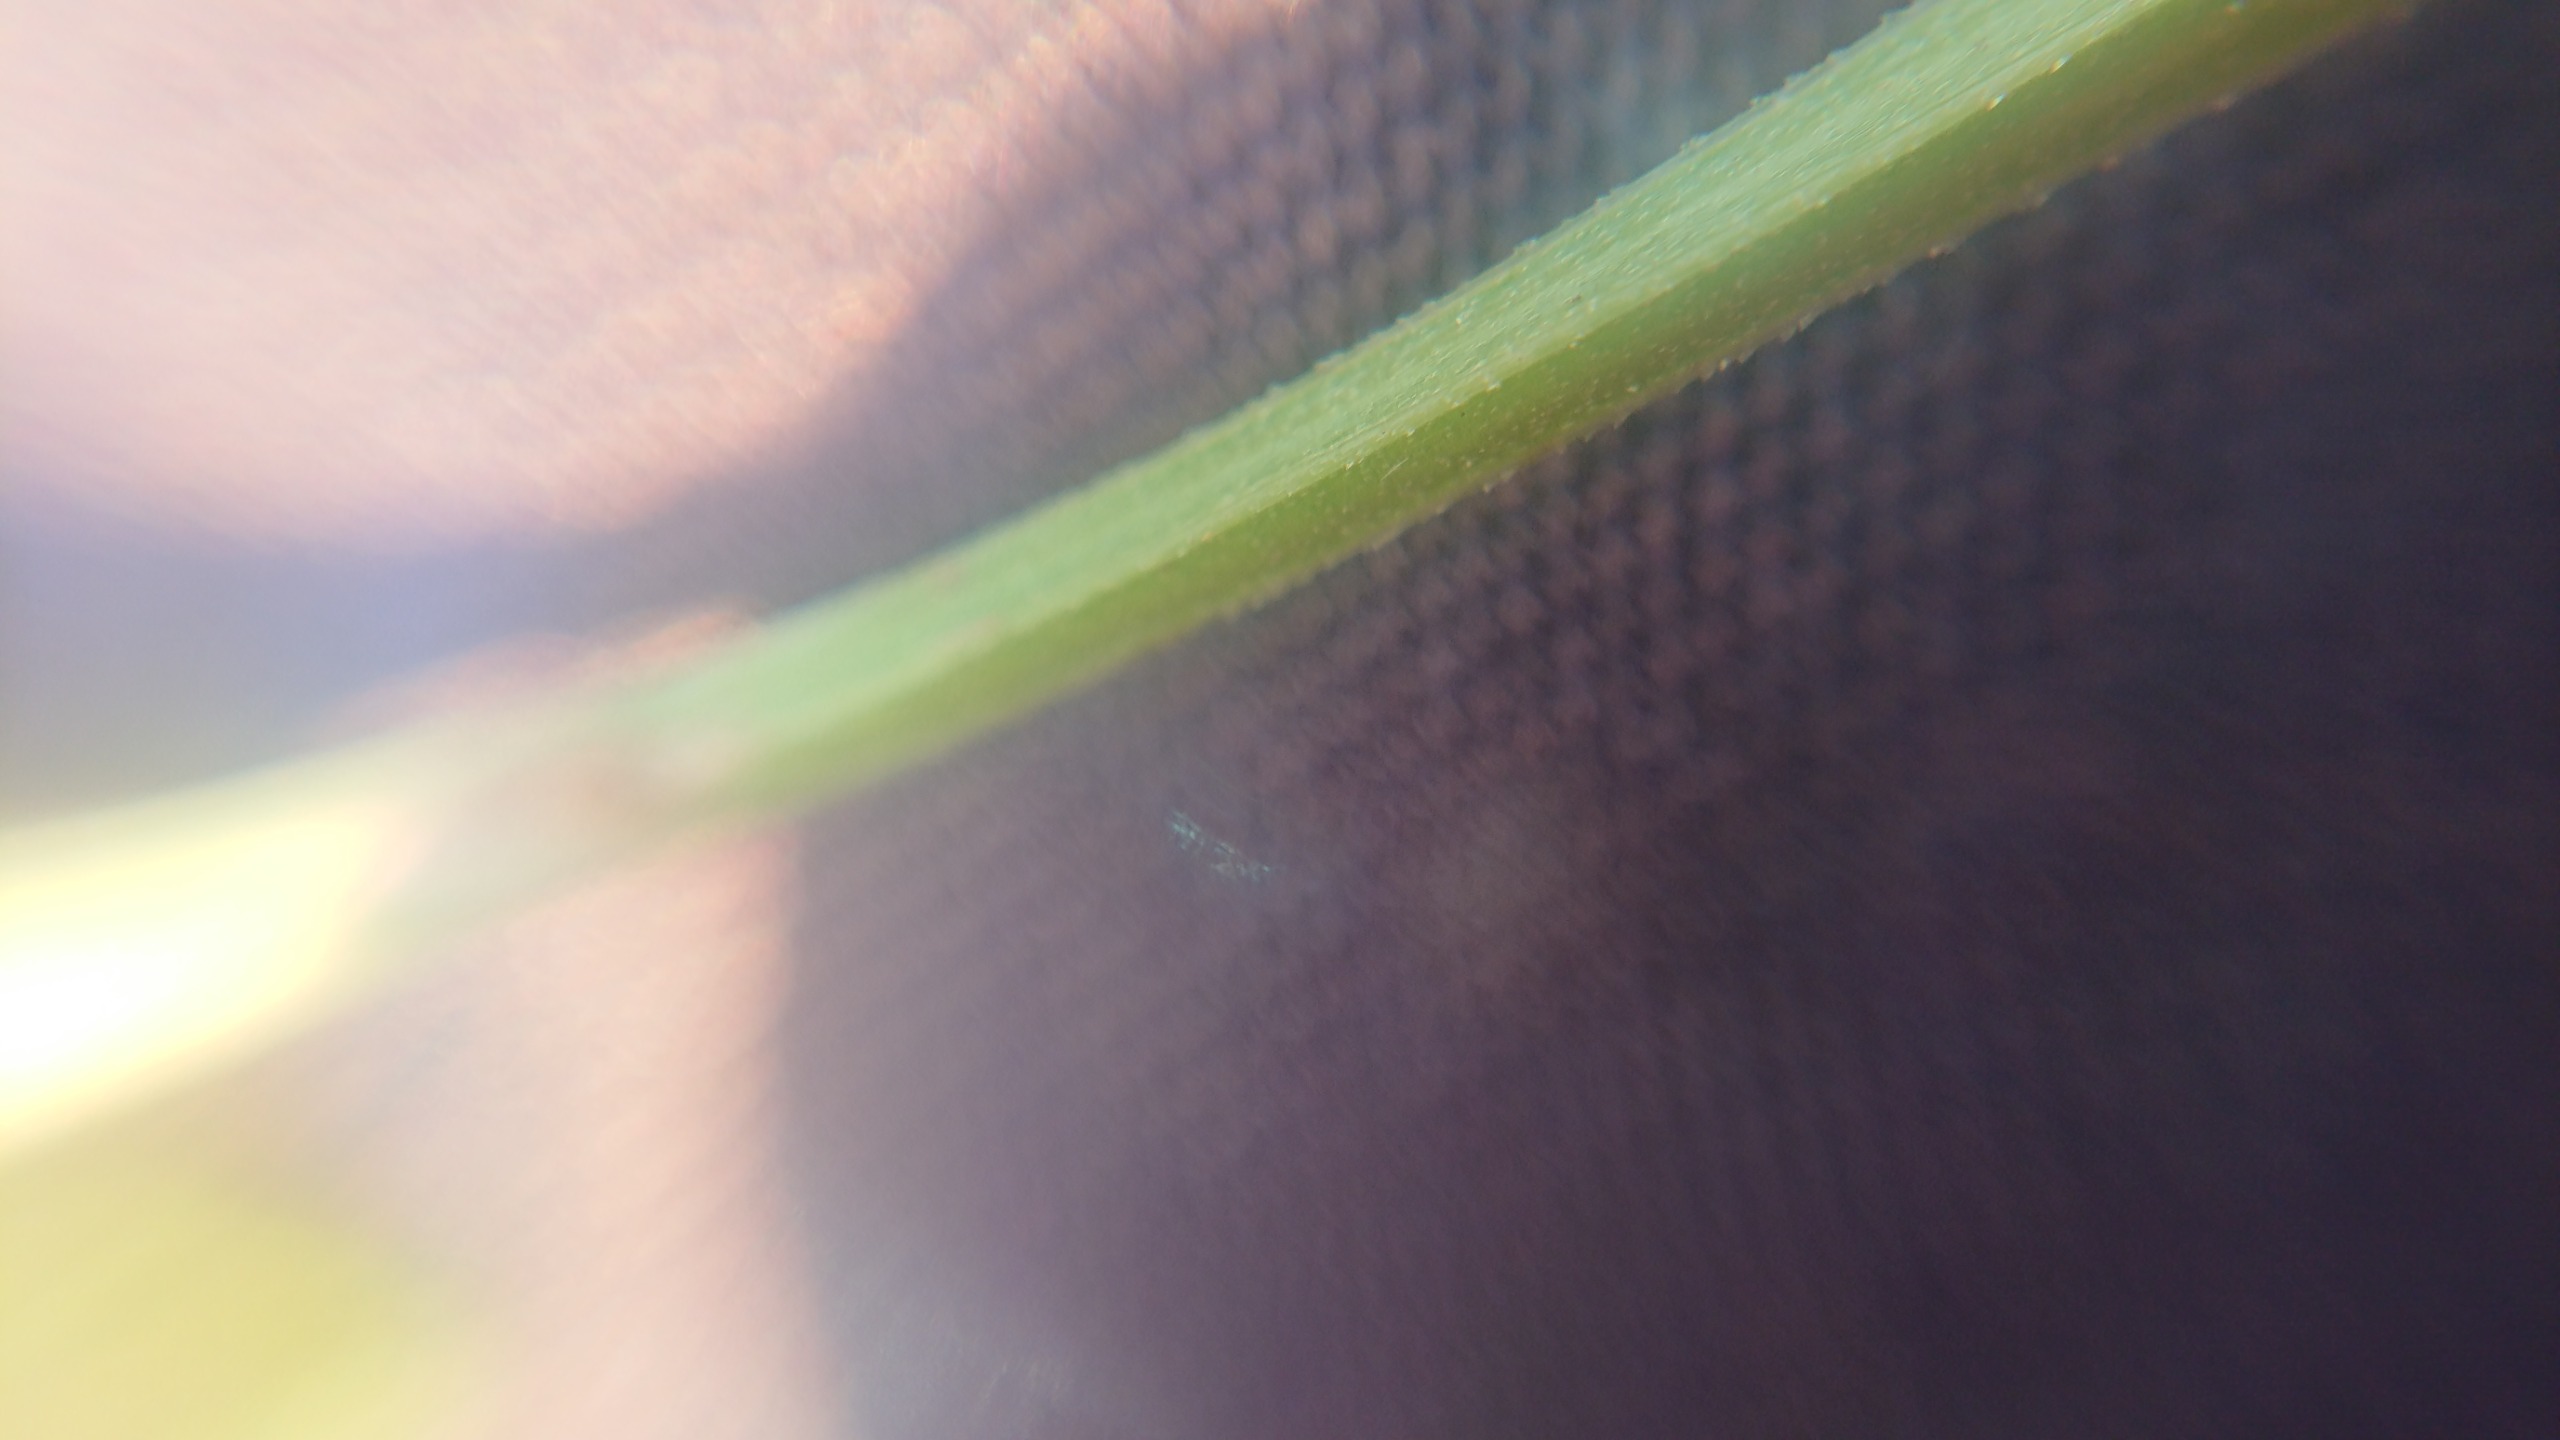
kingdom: Plantae
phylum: Tracheophyta
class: Magnoliopsida
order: Gentianales
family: Rubiaceae
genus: Galium
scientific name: Galium palustre
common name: Kær-snerre
